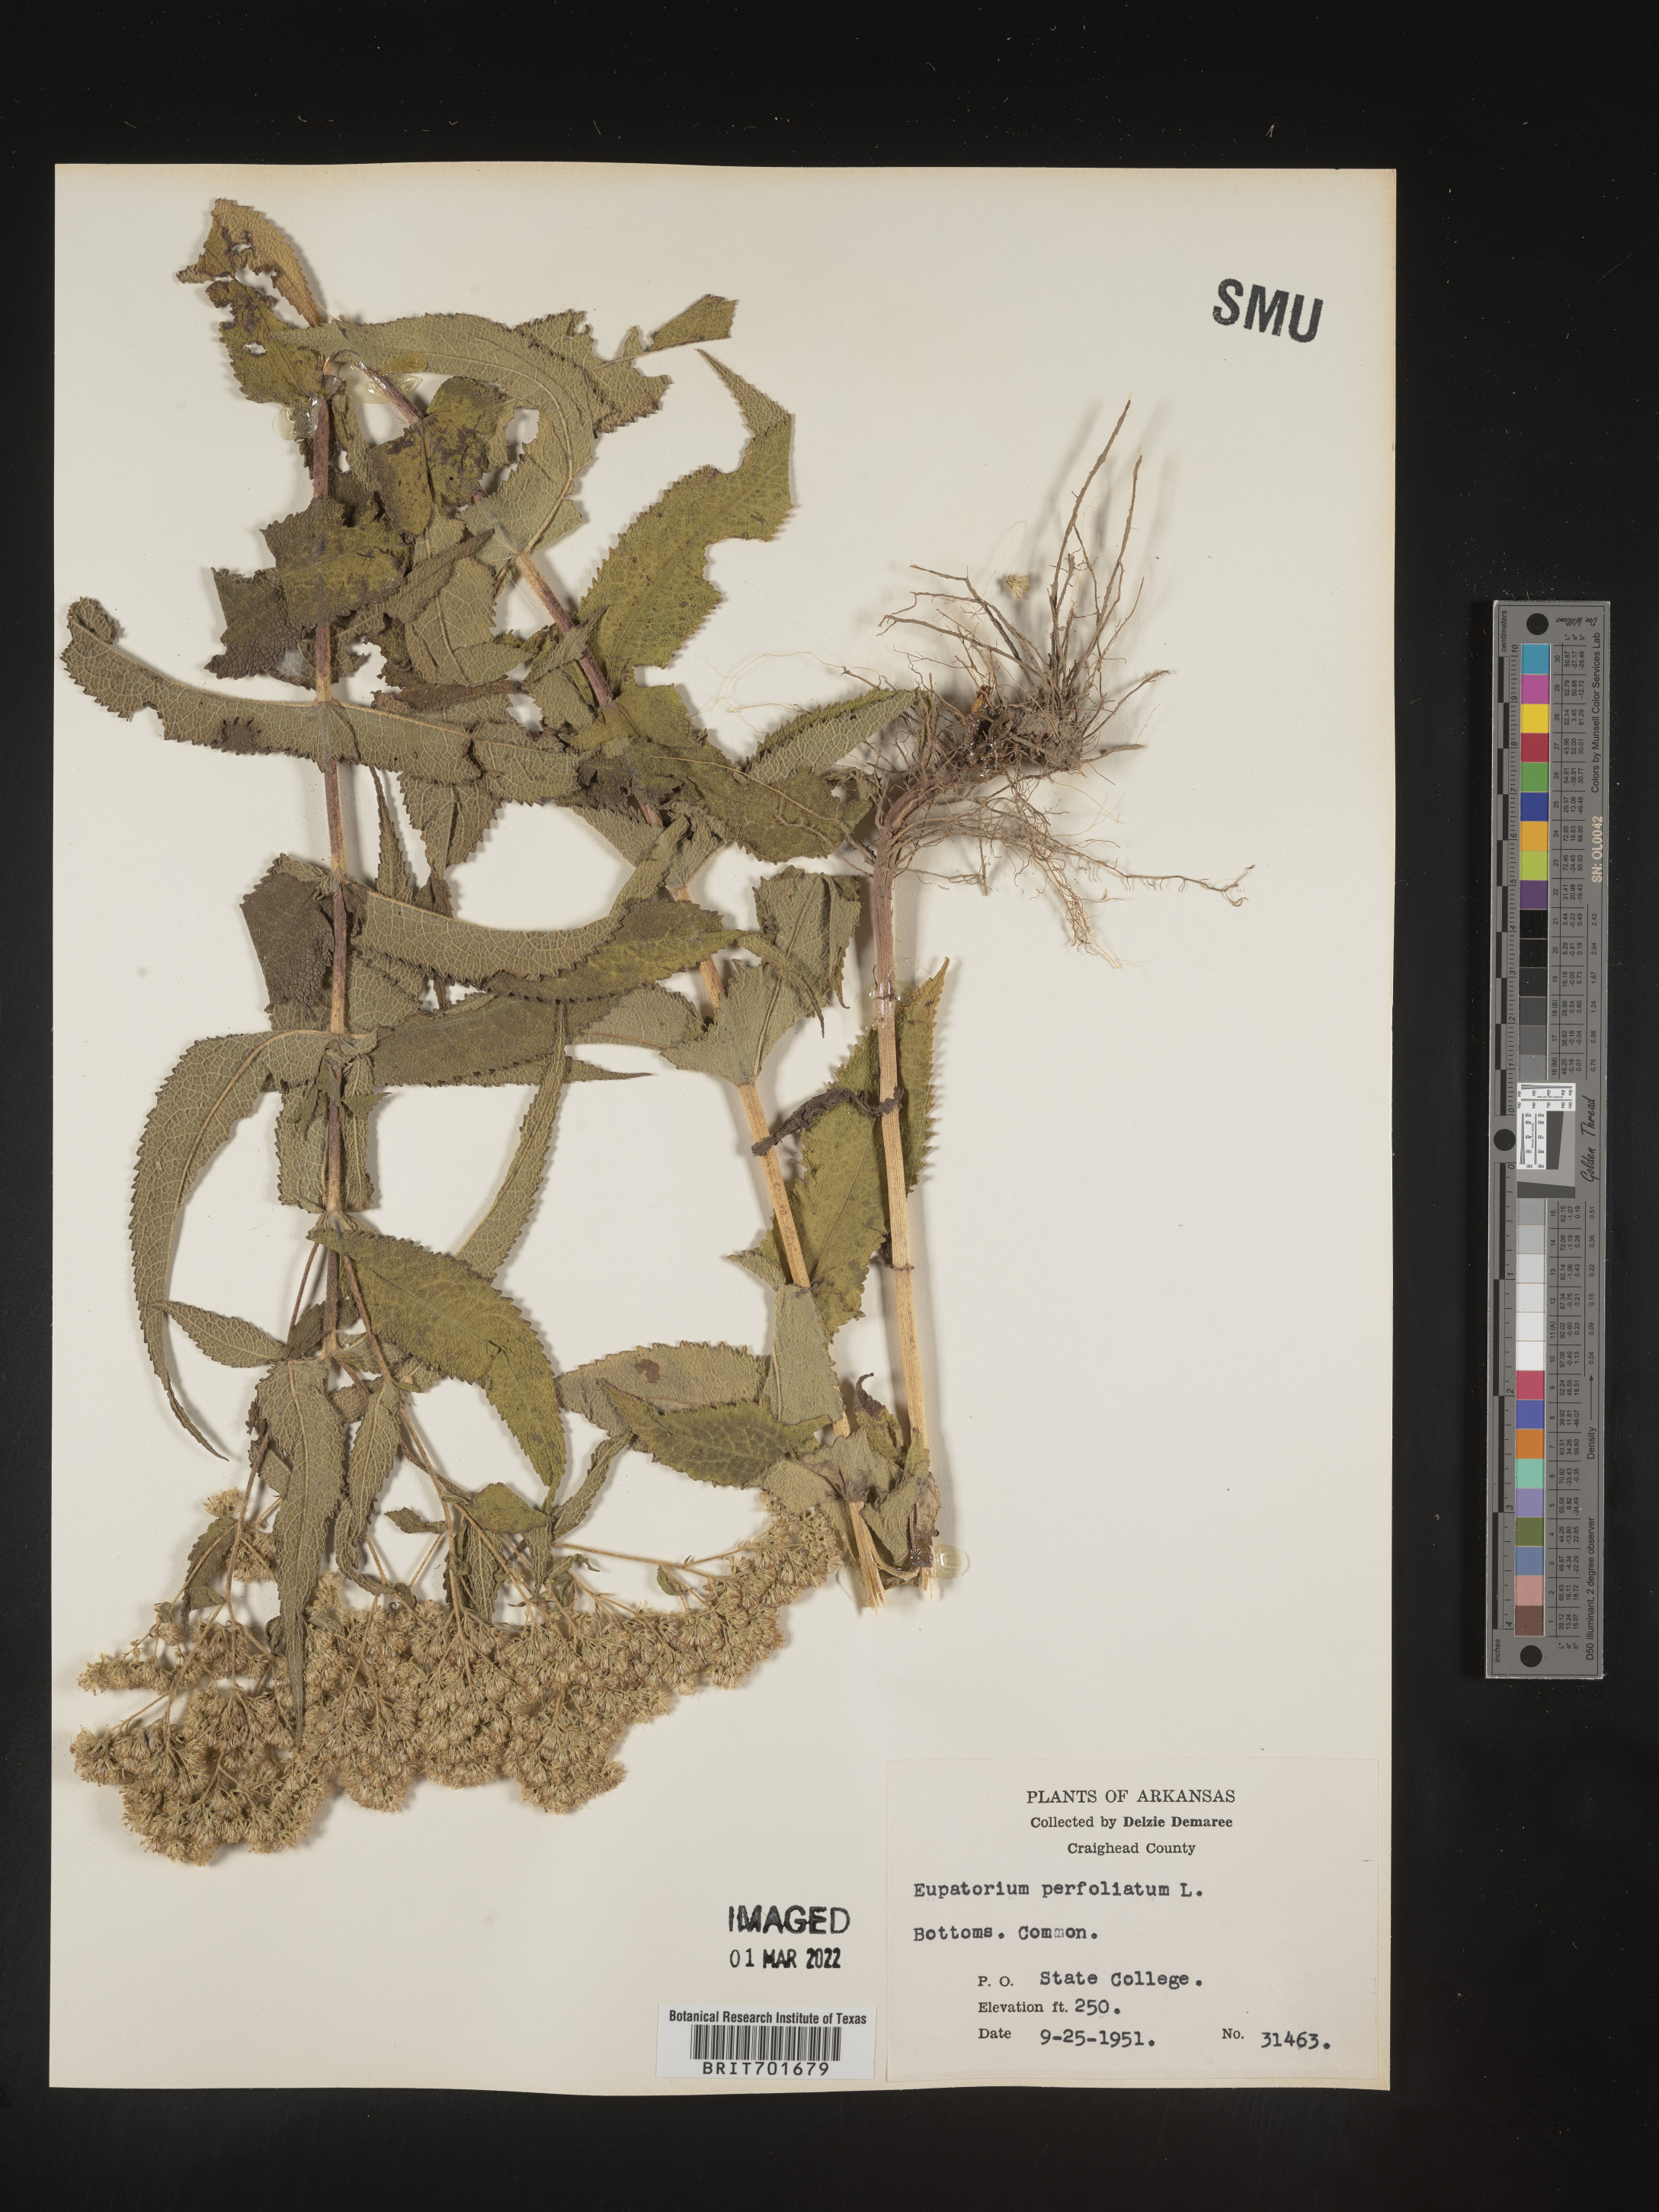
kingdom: Plantae
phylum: Tracheophyta
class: Magnoliopsida
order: Asterales
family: Asteraceae
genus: Eupatorium
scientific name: Eupatorium perfoliatum
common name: Boneset
